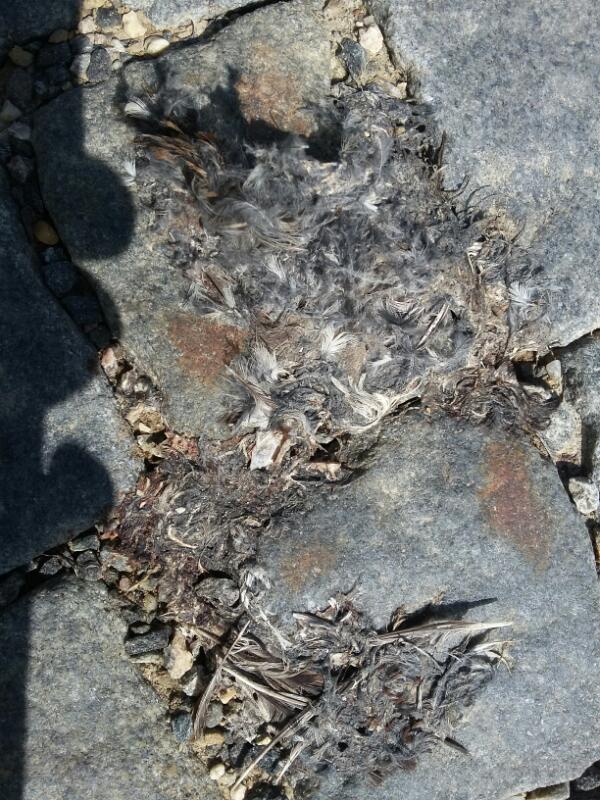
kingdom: Animalia
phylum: Chordata
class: Aves
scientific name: Aves
